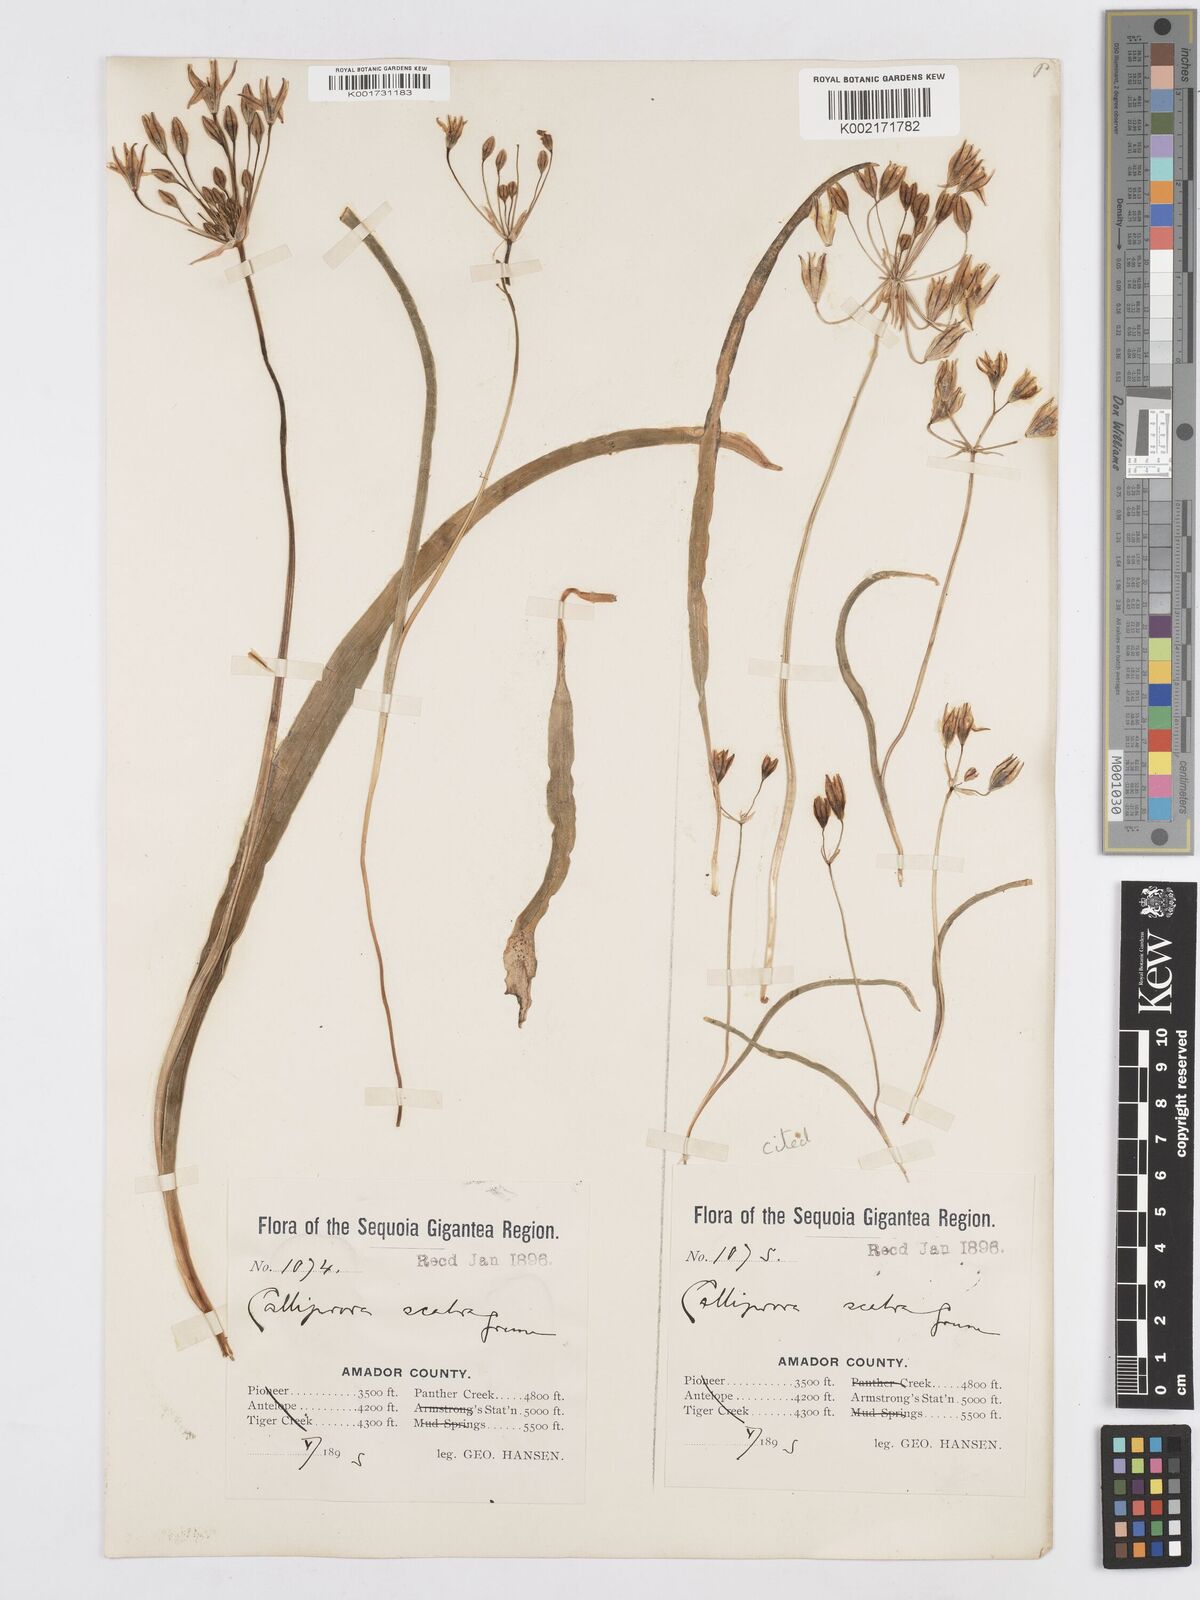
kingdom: Plantae
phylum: Tracheophyta
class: Liliopsida
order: Asparagales
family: Asparagaceae
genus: Triteleia
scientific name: Triteleia ixioides
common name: Yellow-brodiaea
